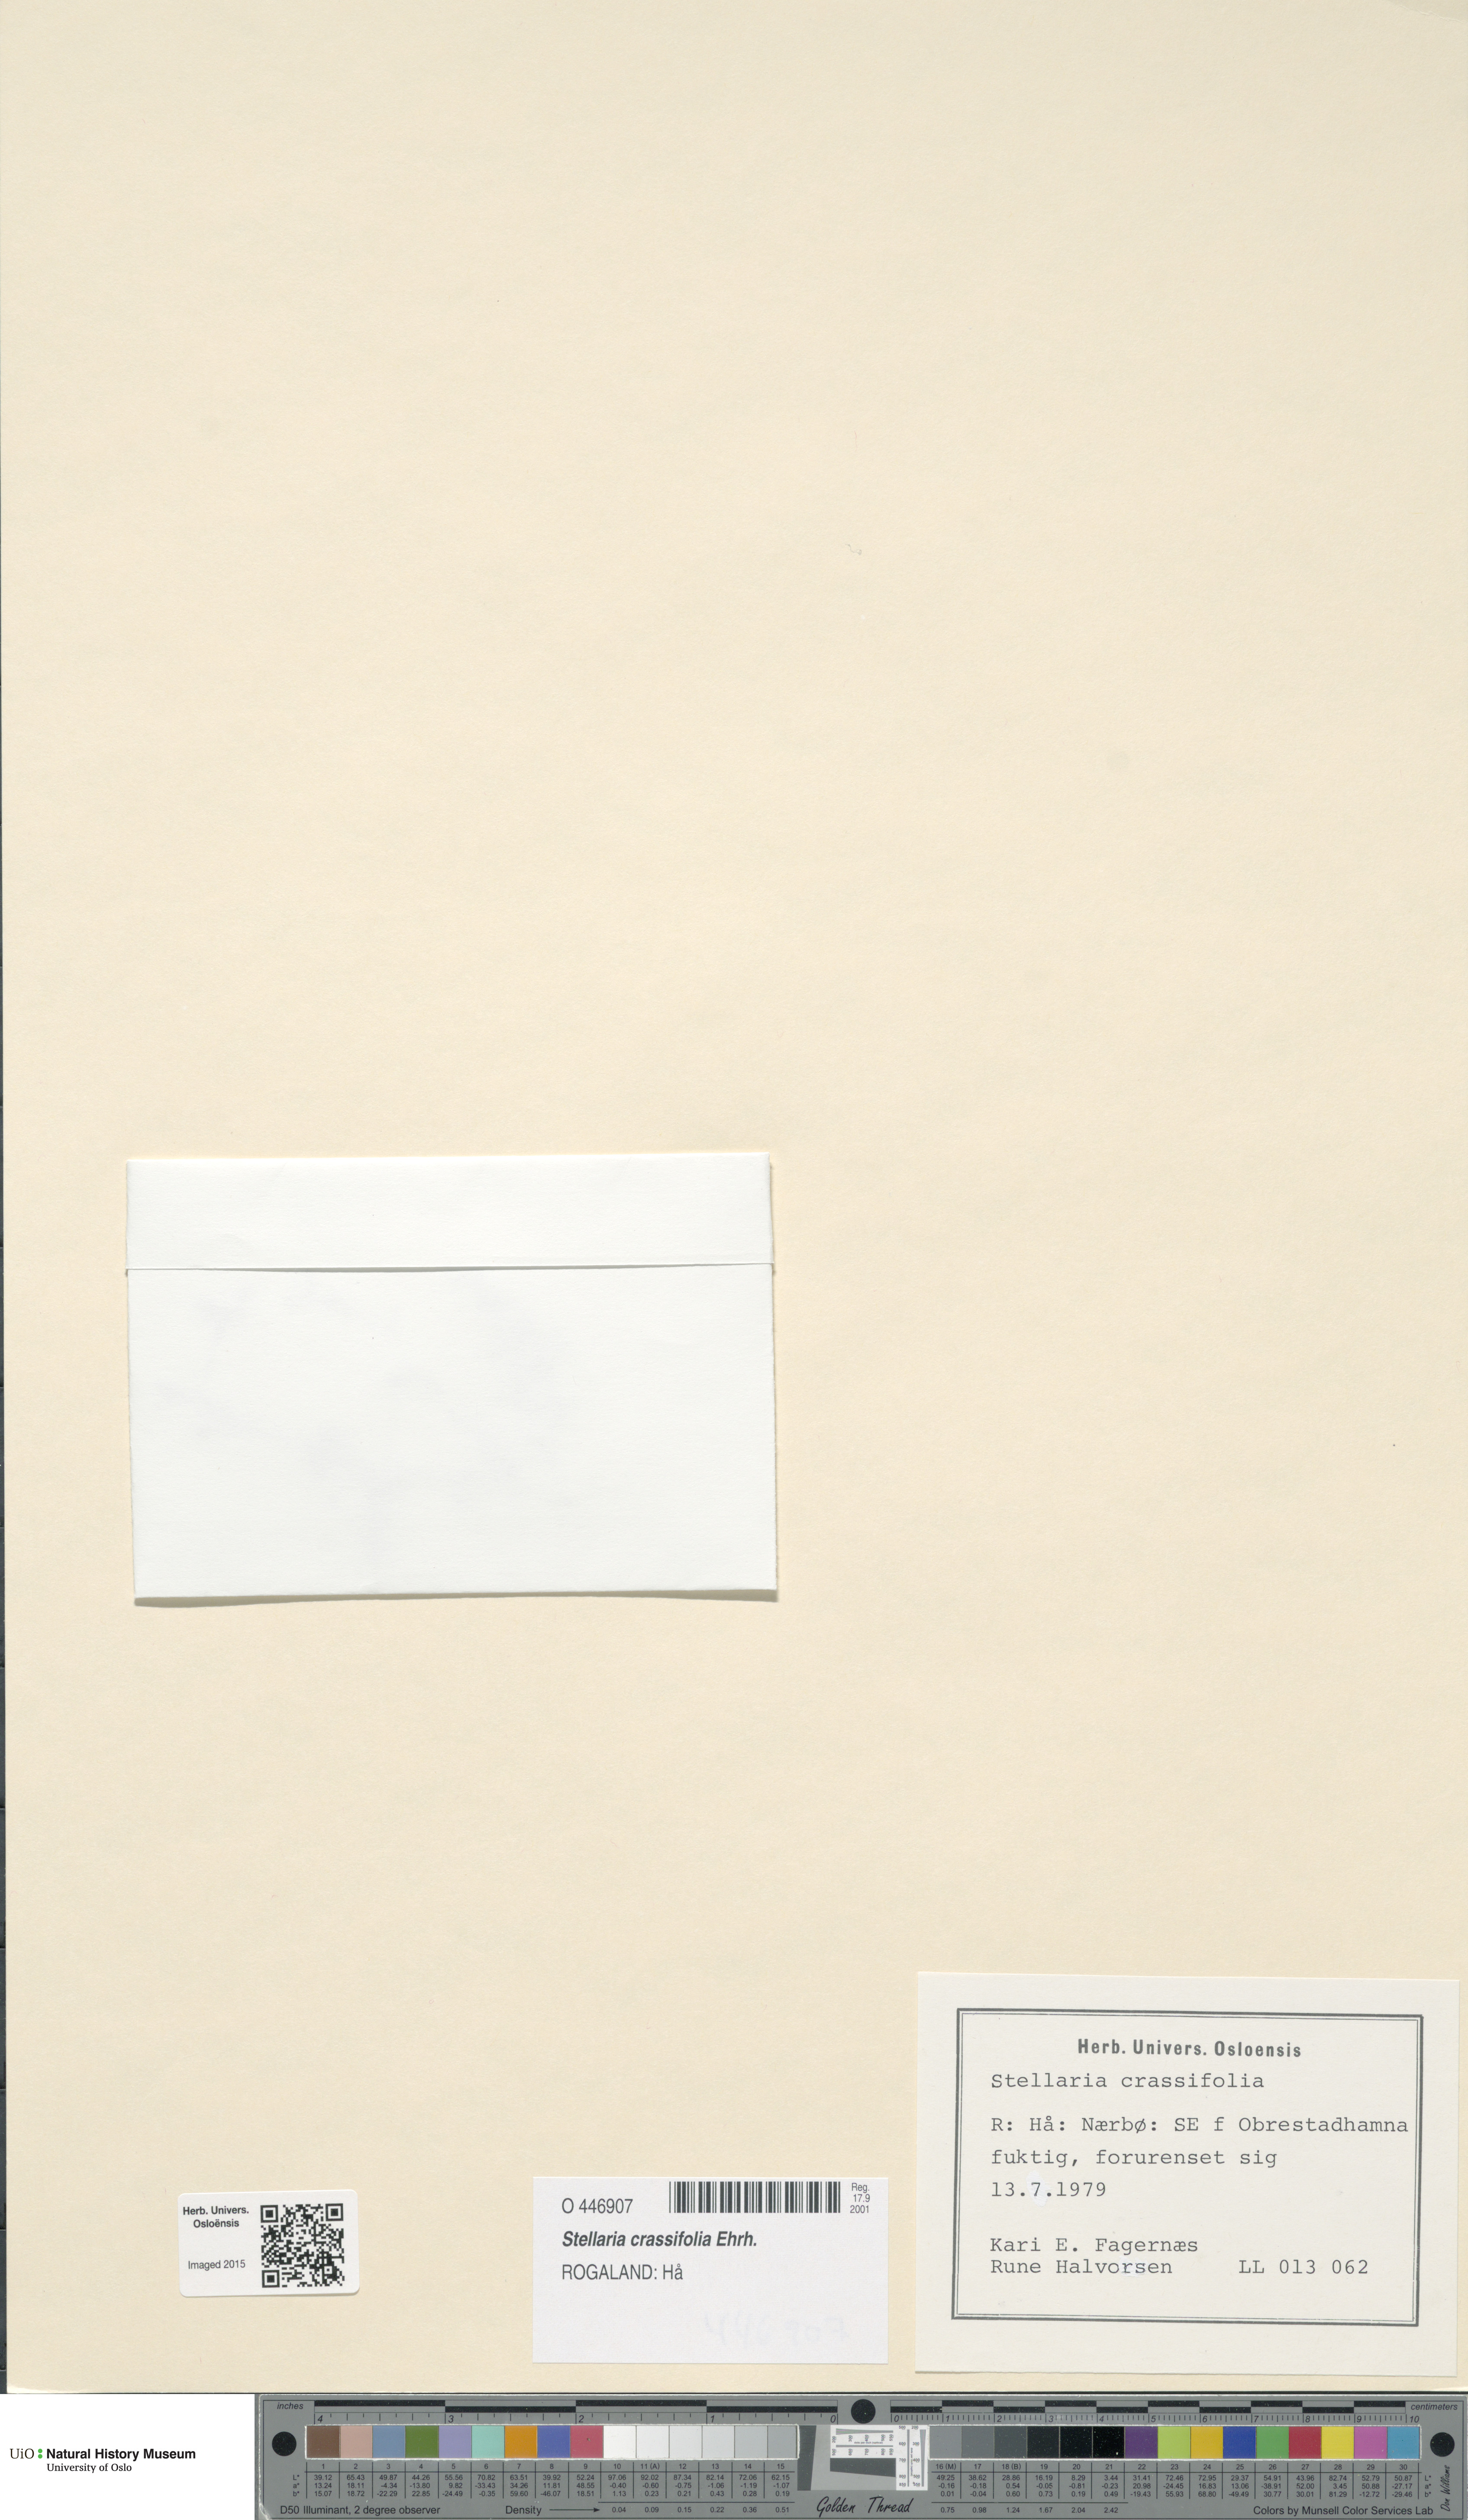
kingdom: Plantae
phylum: Tracheophyta
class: Magnoliopsida
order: Caryophyllales
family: Caryophyllaceae
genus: Stellaria
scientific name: Stellaria crassifolia
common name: Fleshy starwort
